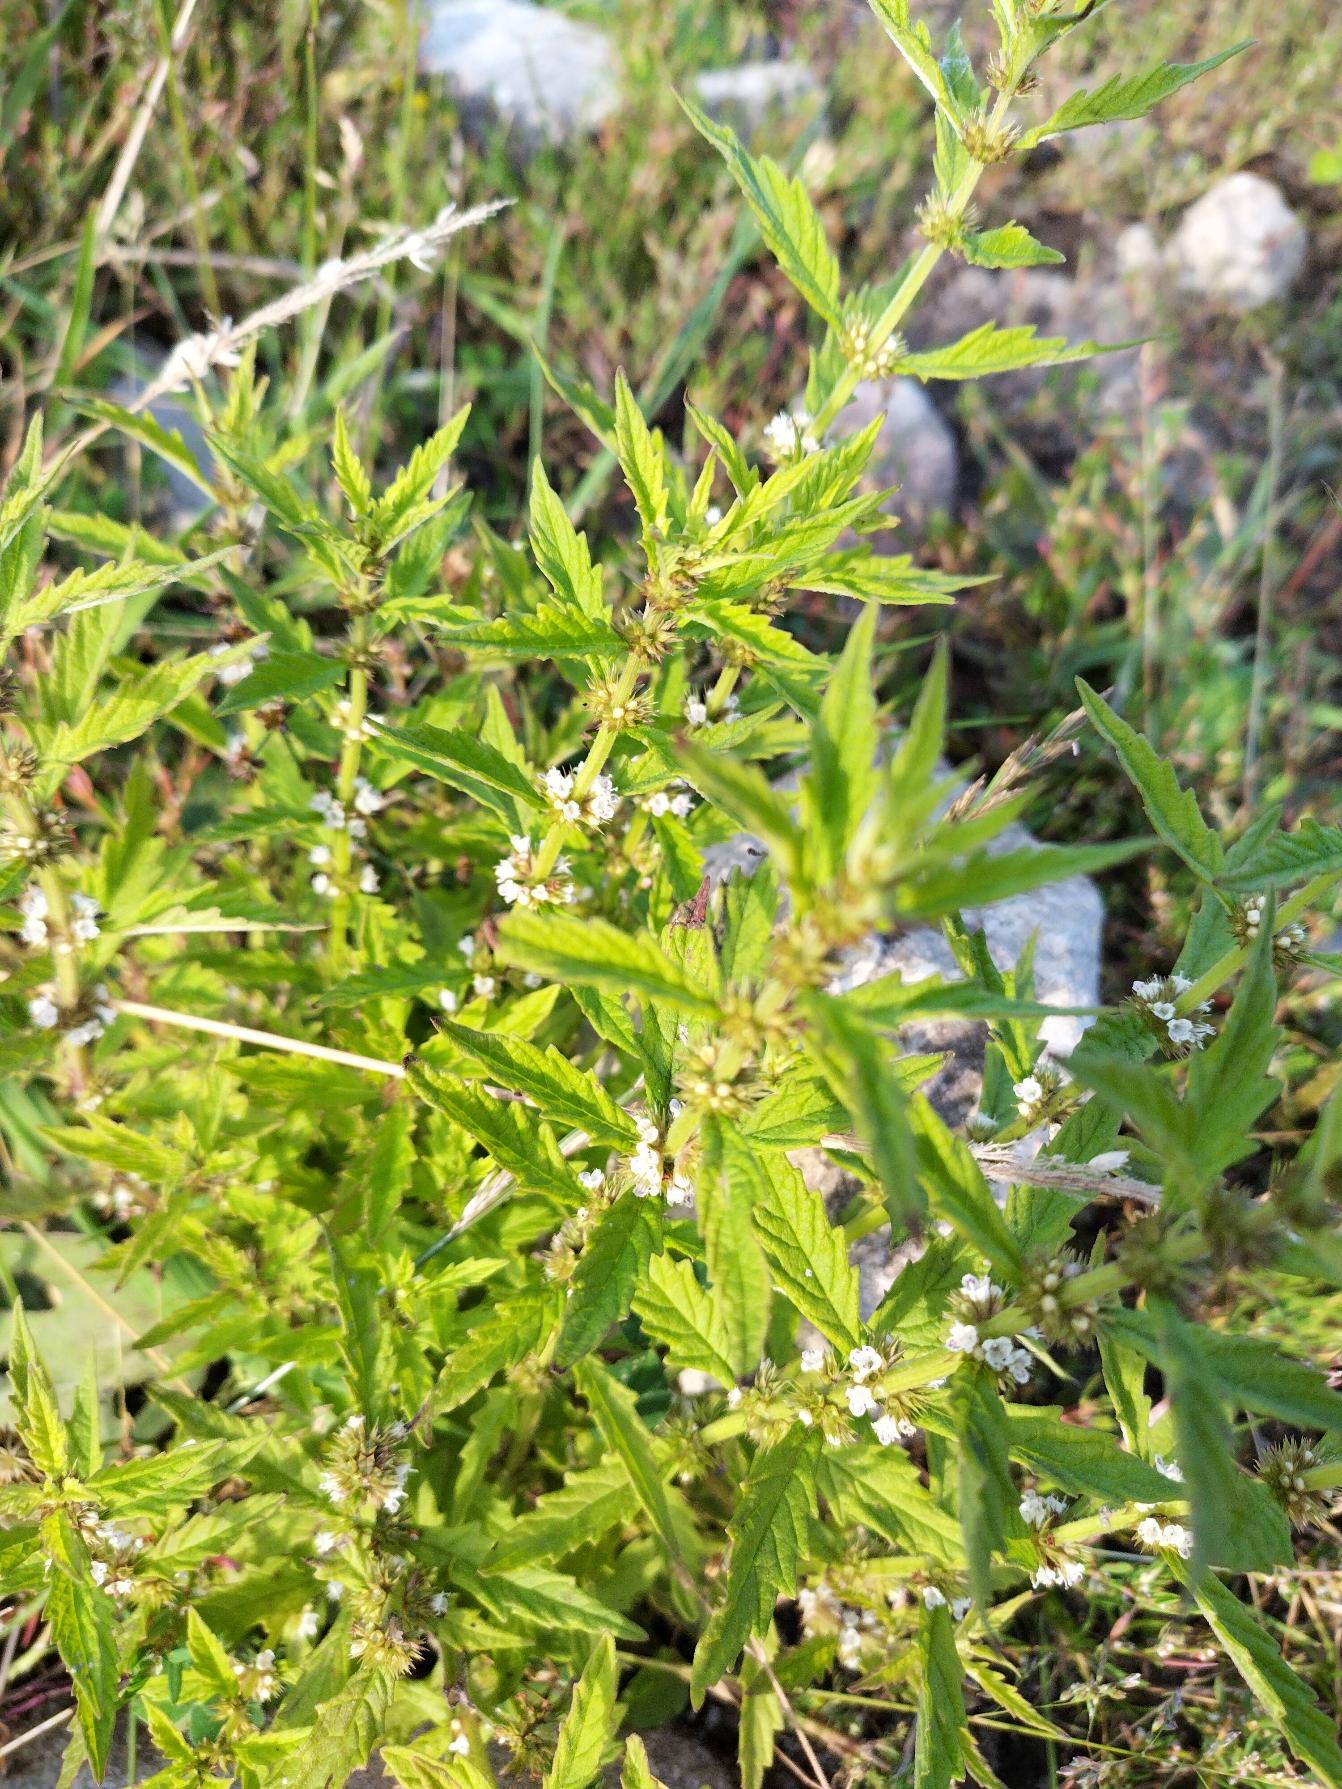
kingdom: Plantae
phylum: Tracheophyta
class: Magnoliopsida
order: Lamiales
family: Lamiaceae
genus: Lycopus
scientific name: Lycopus europaeus
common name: Sværtevæld
